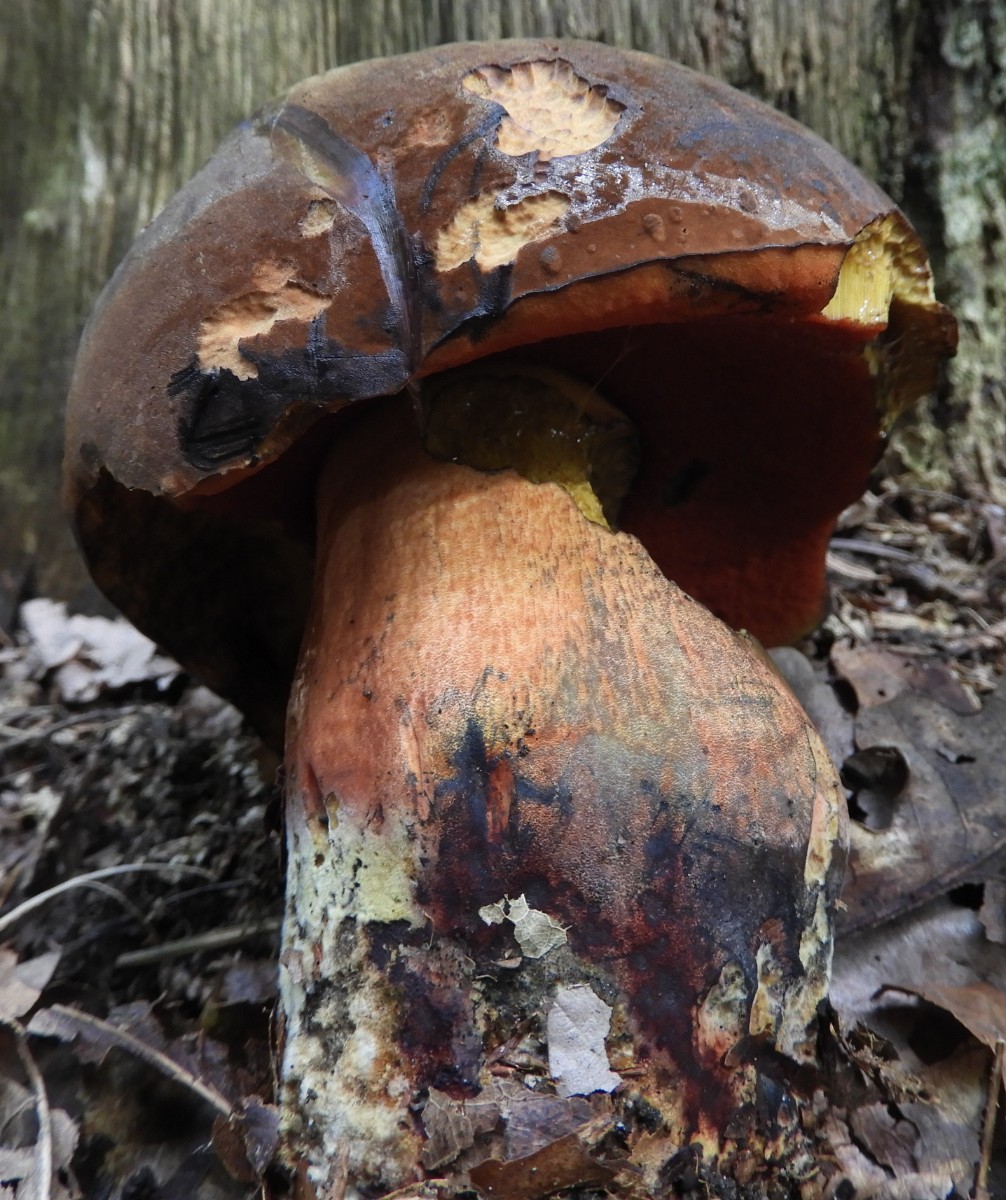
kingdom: Fungi
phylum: Basidiomycota
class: Agaricomycetes
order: Boletales
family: Boletaceae
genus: Neoboletus
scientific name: Neoboletus erythropus
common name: punktstokket indigorørhat
